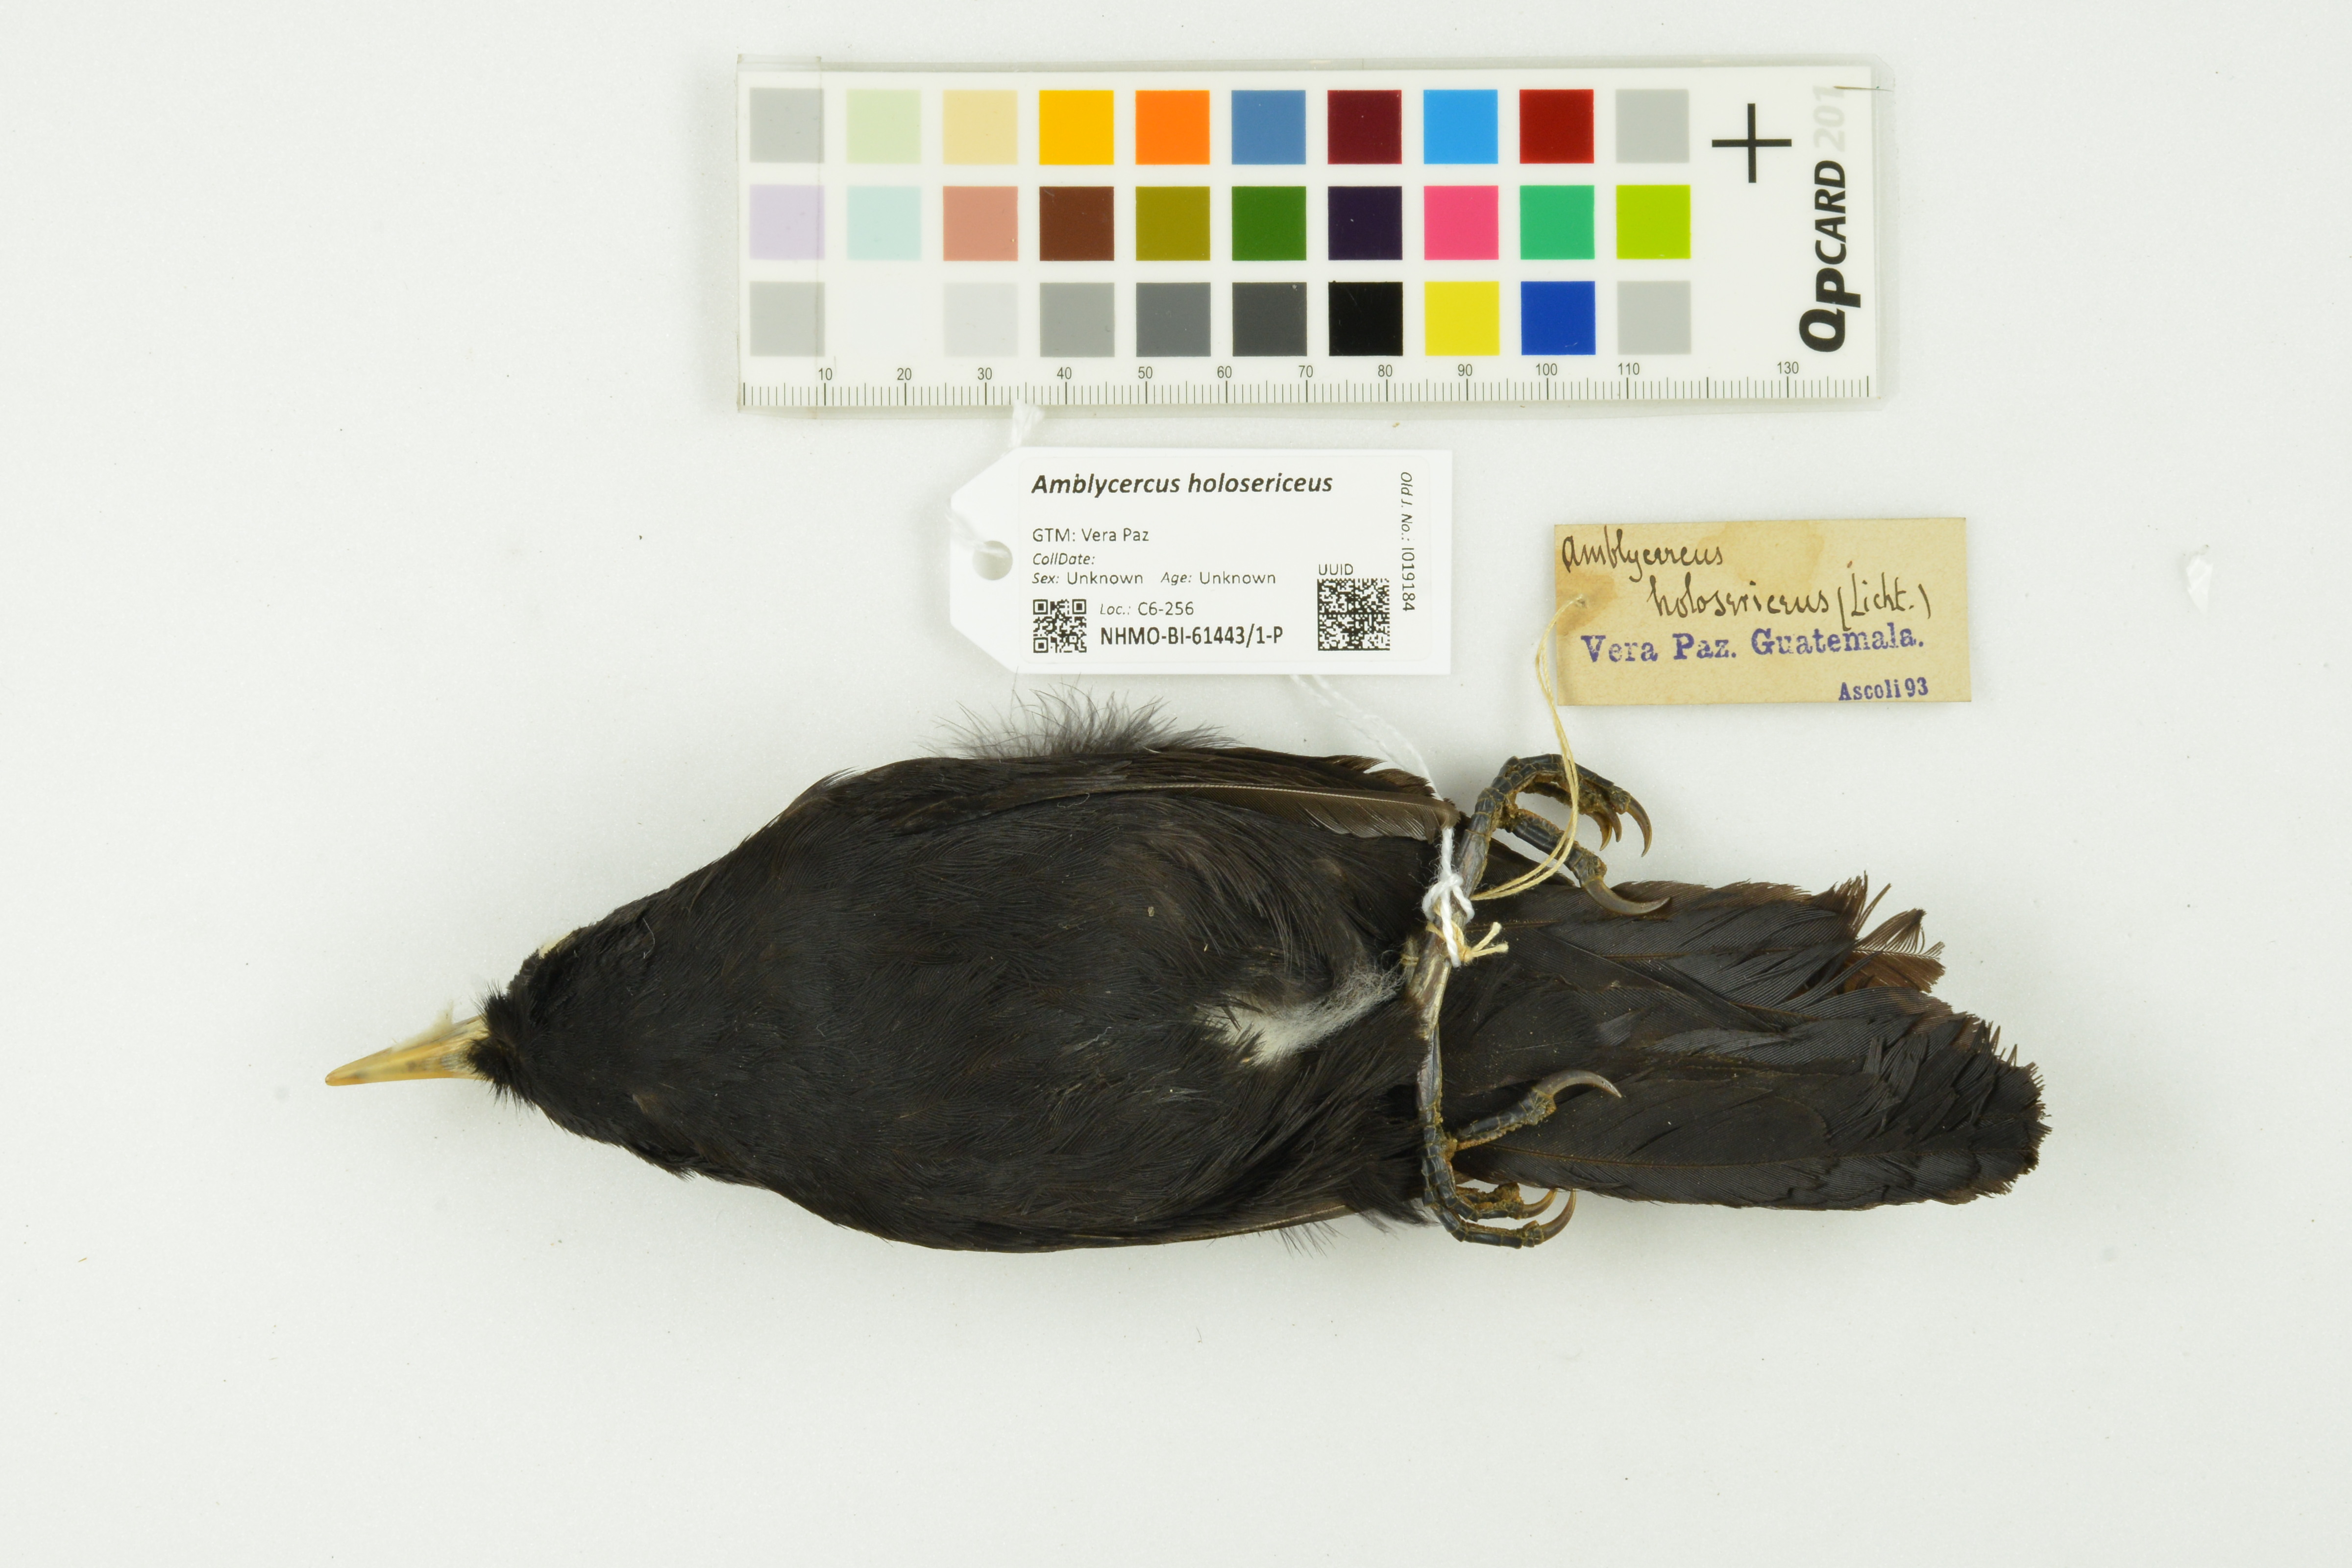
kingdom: Animalia
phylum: Chordata
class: Aves
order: Passeriformes
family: Icteridae
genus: Amblycercus
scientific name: Amblycercus holosericeus
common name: Yellow-billed cacique
